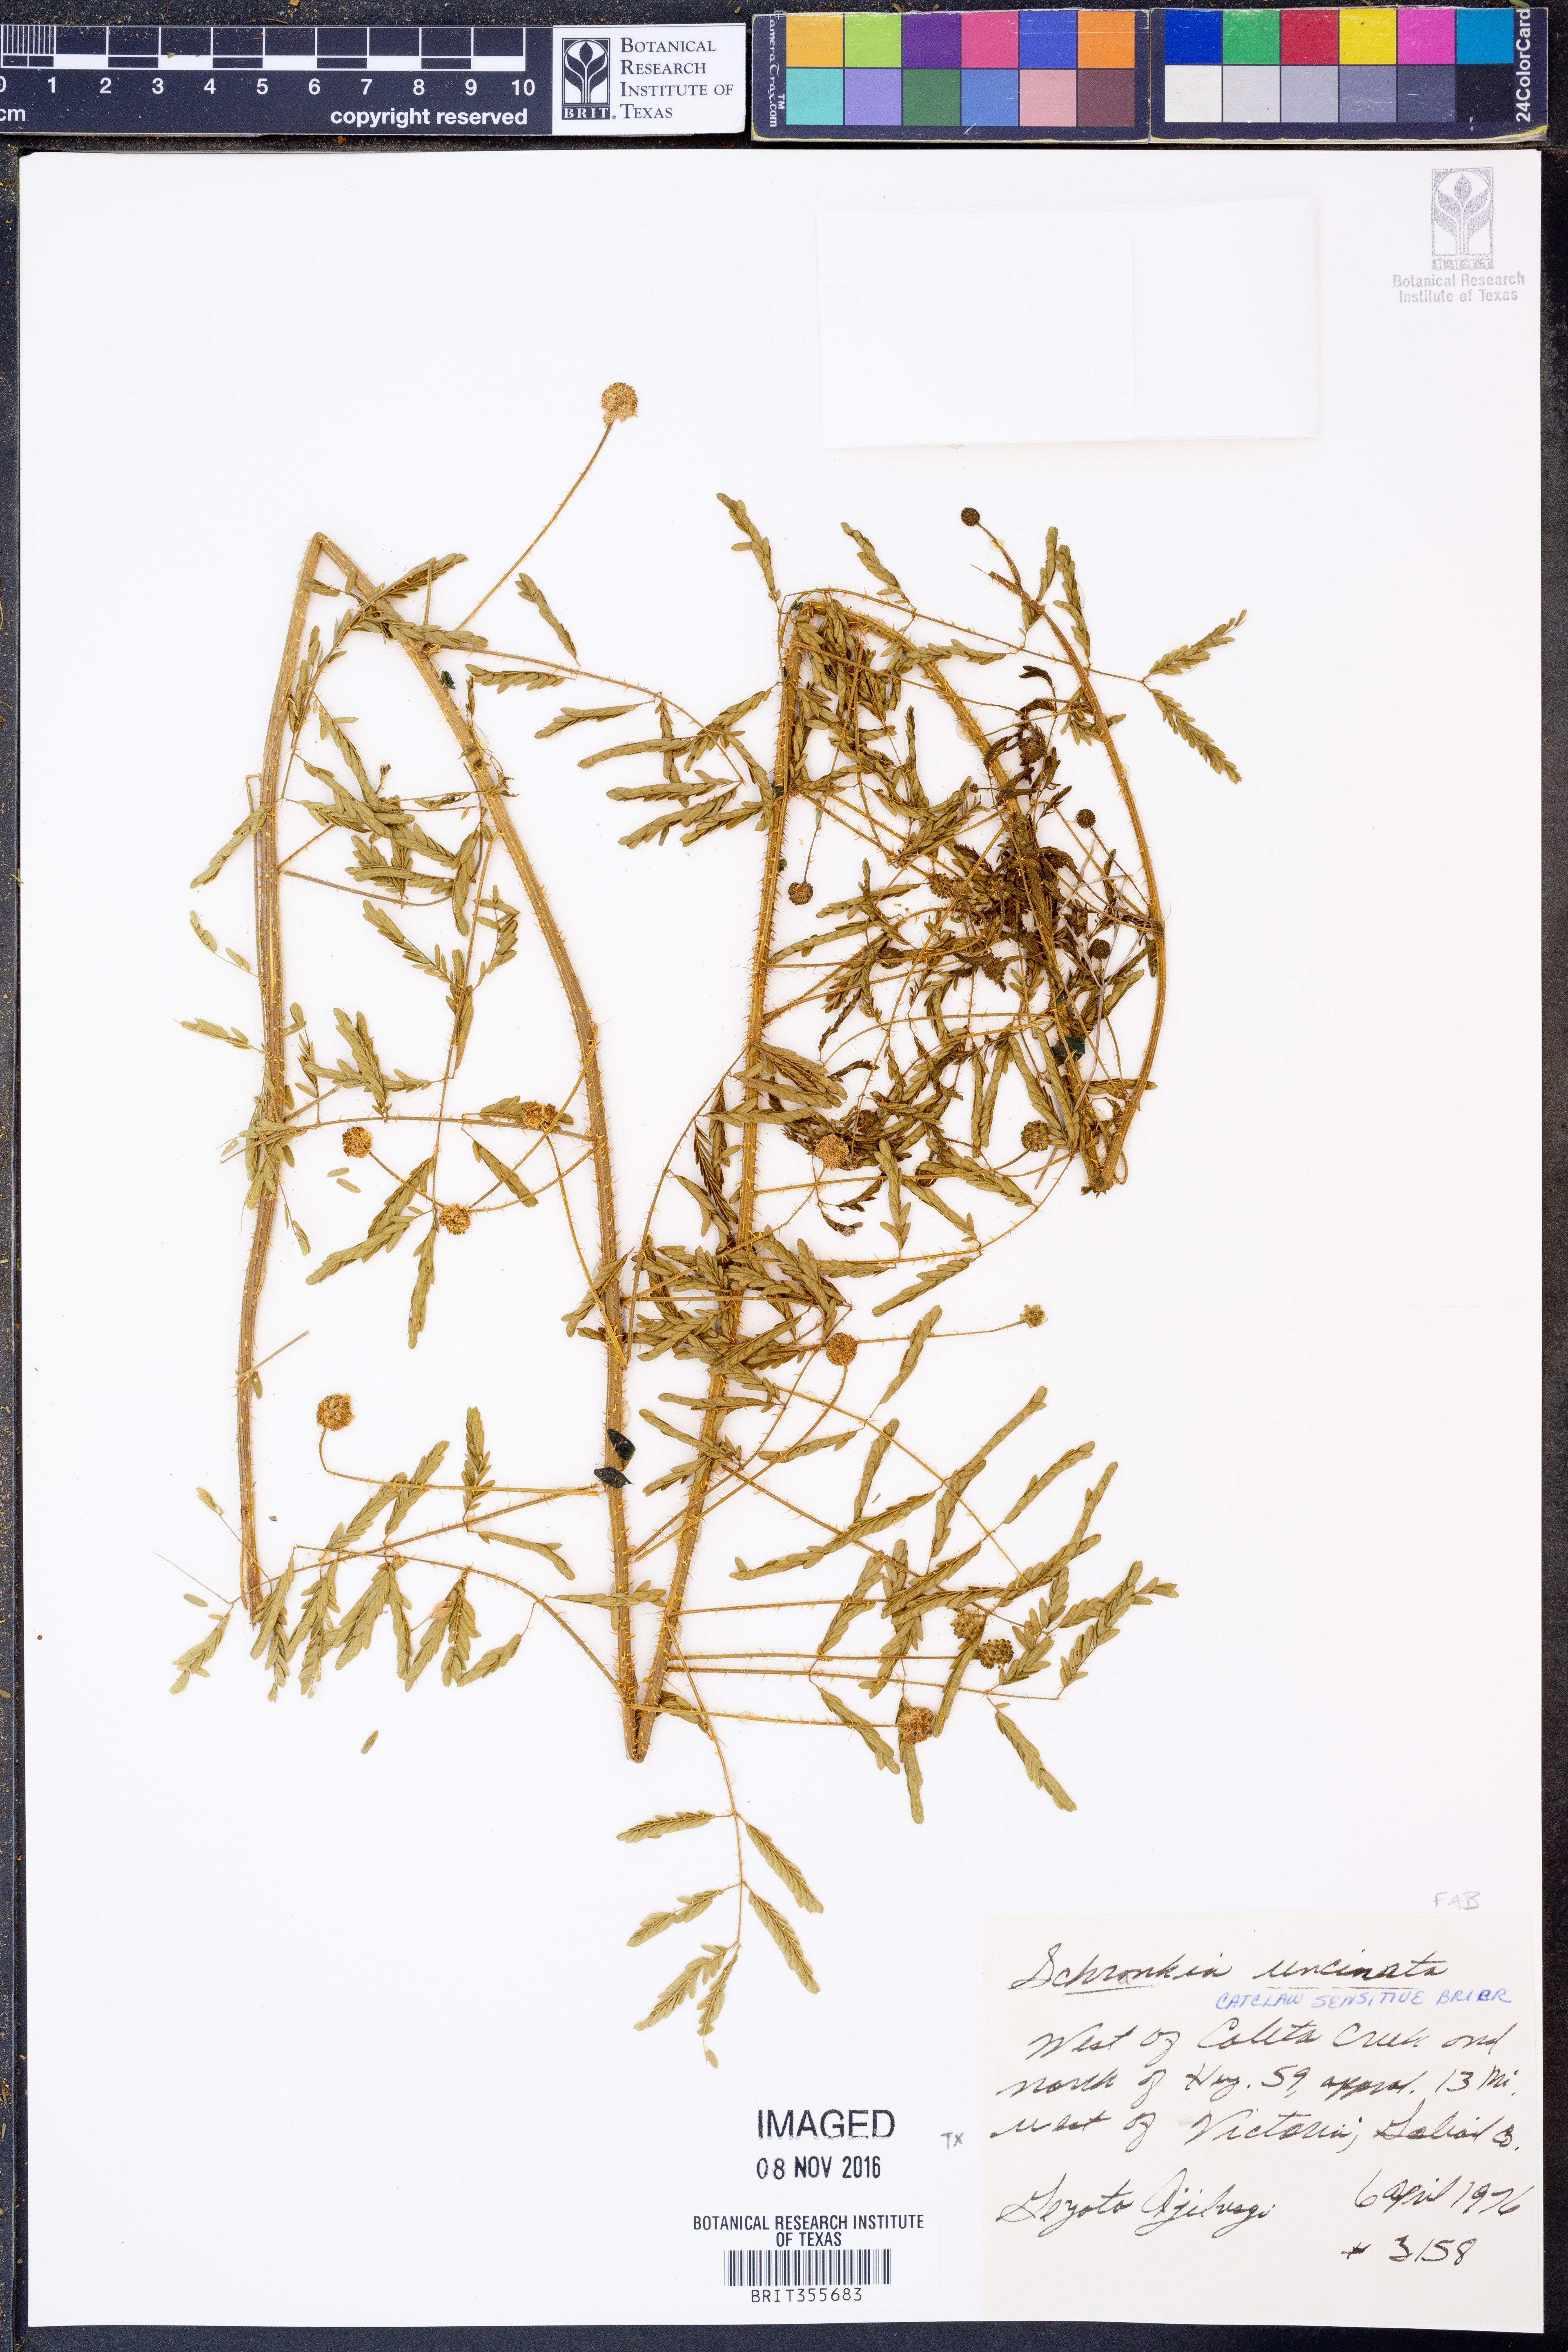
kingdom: Plantae
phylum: Tracheophyta
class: Magnoliopsida
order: Fabales
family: Fabaceae
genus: Mimosa
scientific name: Mimosa quadrivalvis
